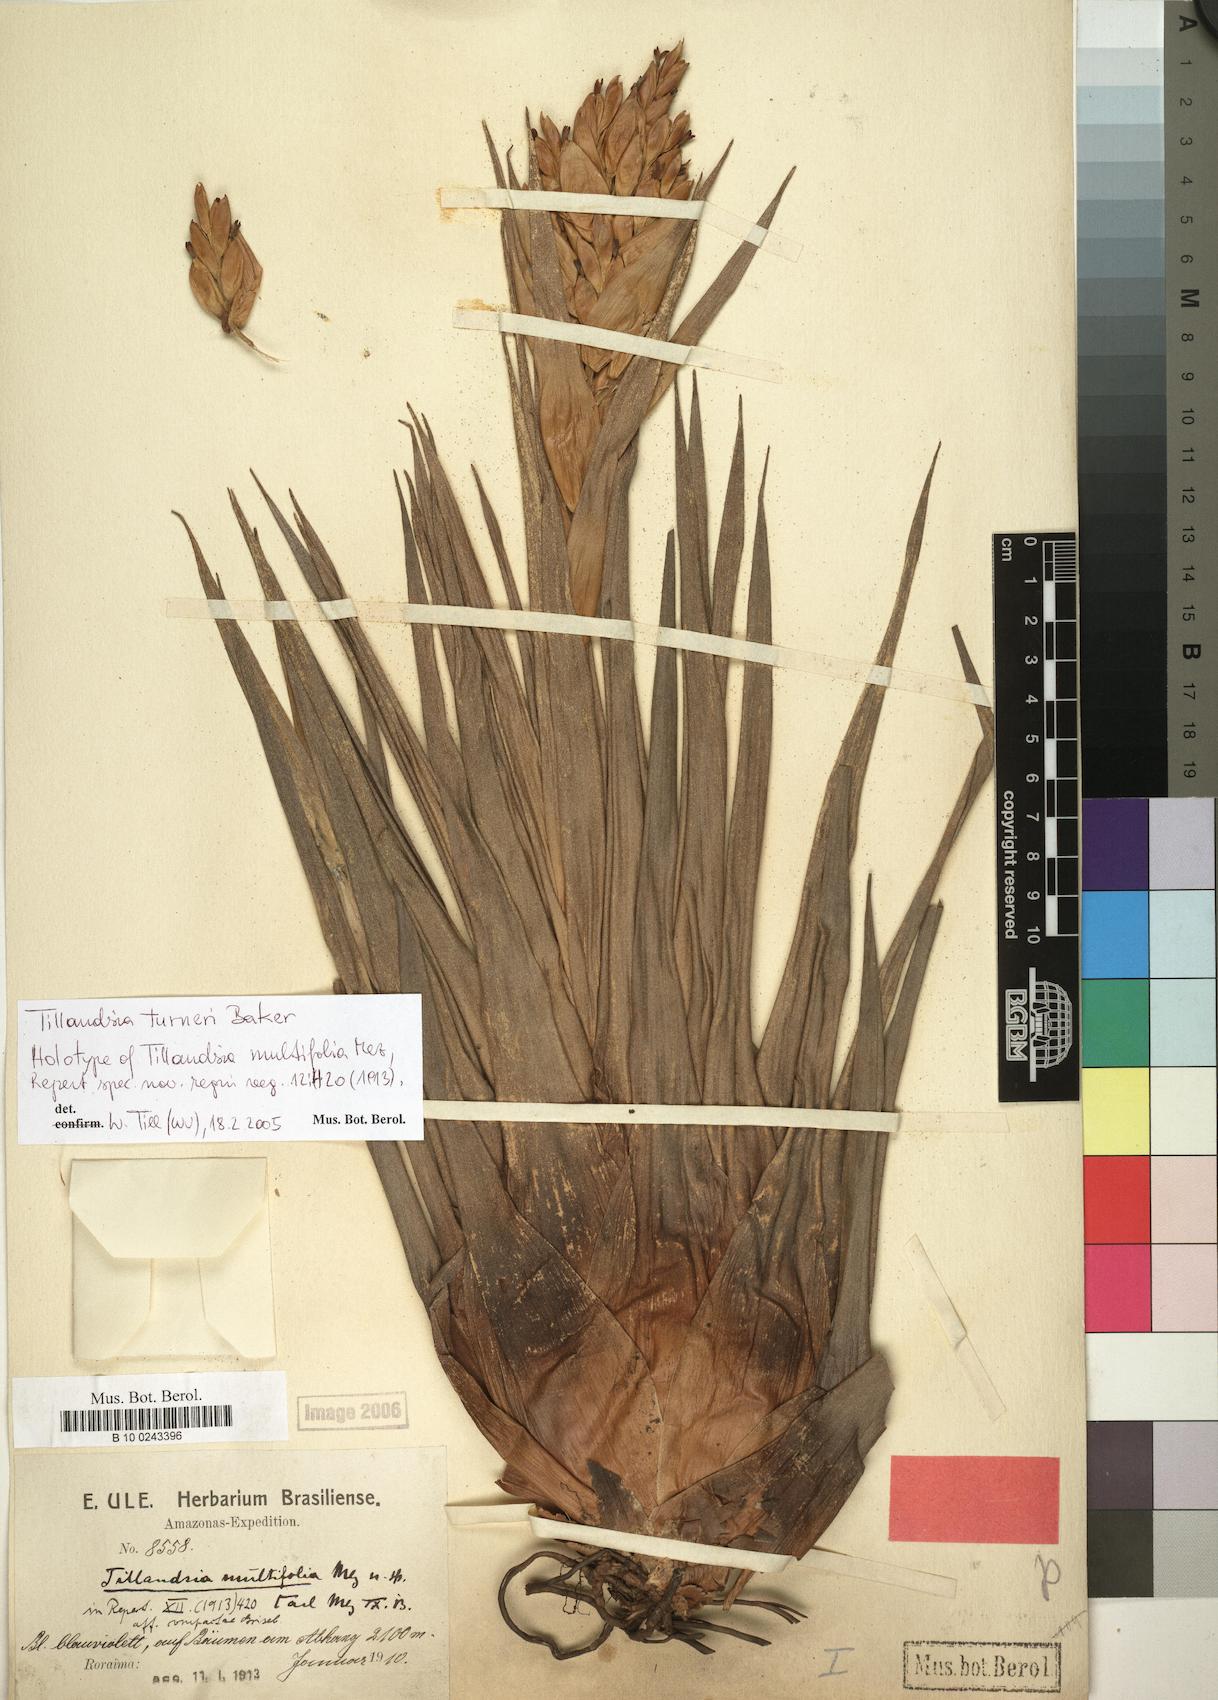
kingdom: Plantae
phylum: Tracheophyta
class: Liliopsida
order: Poales
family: Bromeliaceae
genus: Tillandsia
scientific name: Tillandsia turneri
